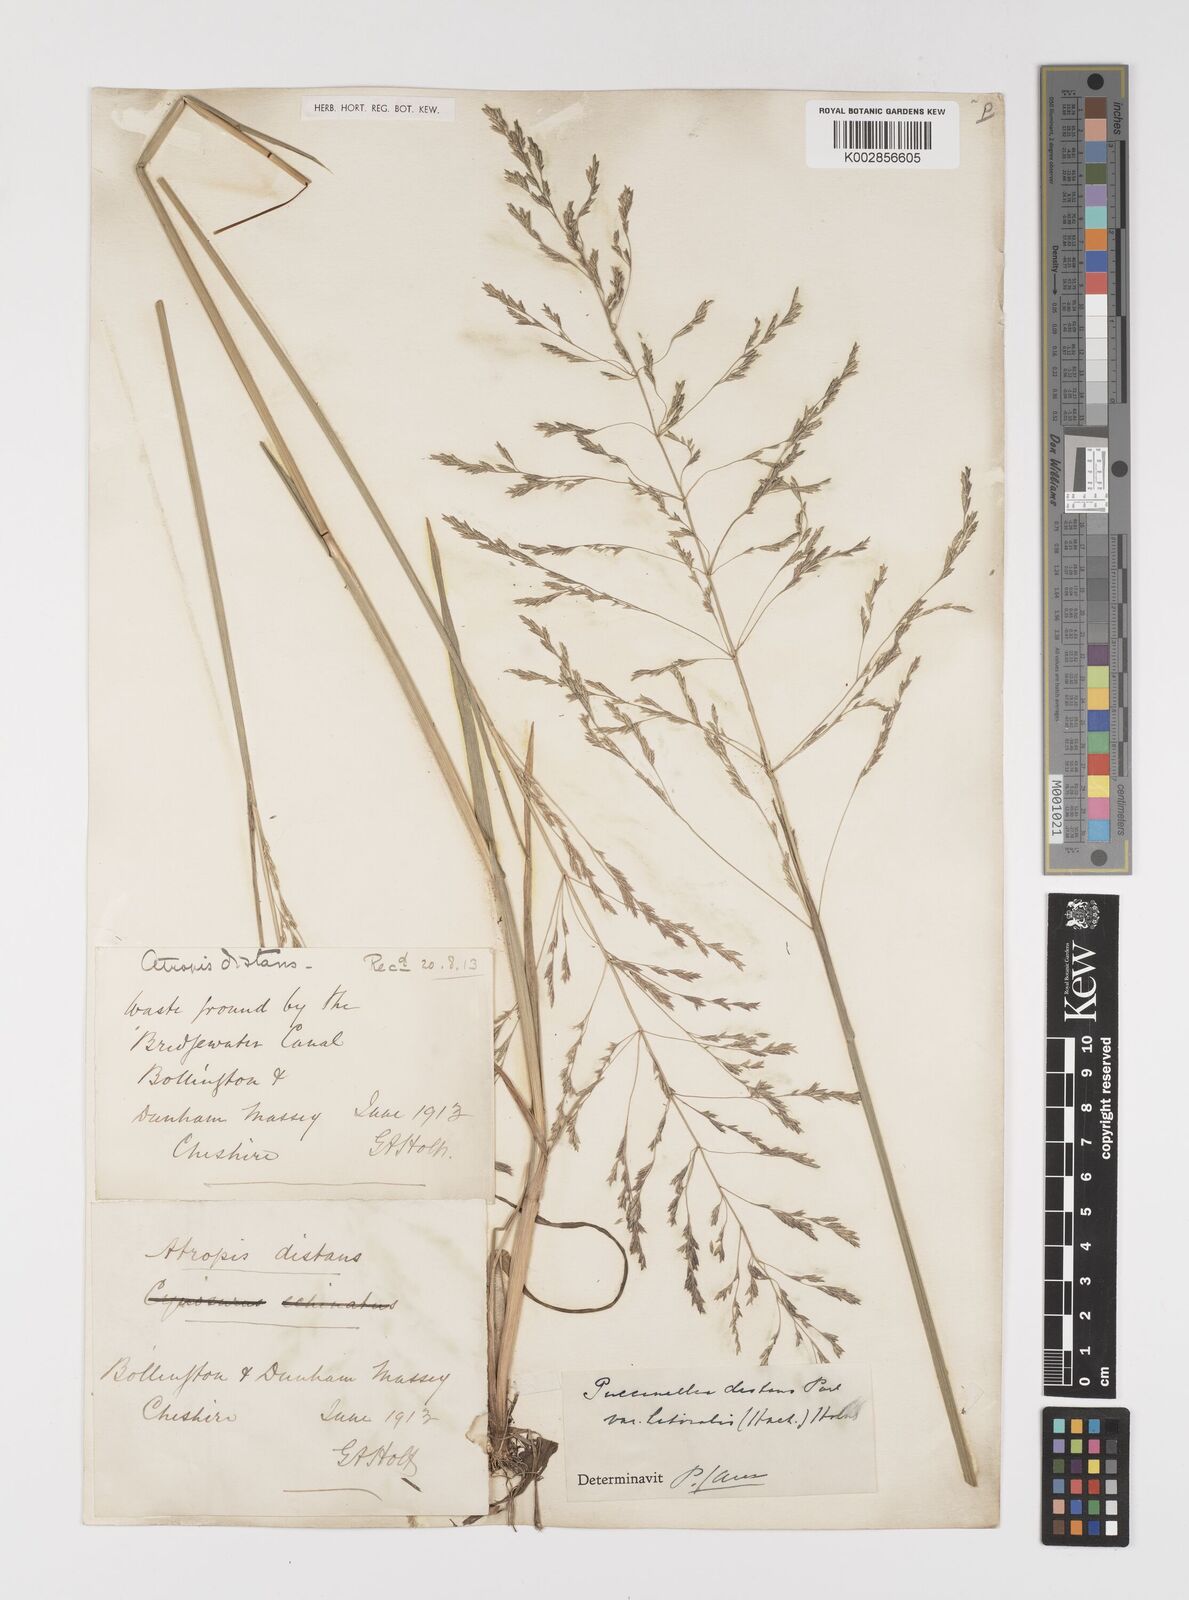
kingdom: Plantae
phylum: Tracheophyta
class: Liliopsida
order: Poales
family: Poaceae
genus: Puccinellia
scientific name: Puccinellia distans
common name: Weeping alkaligrass
